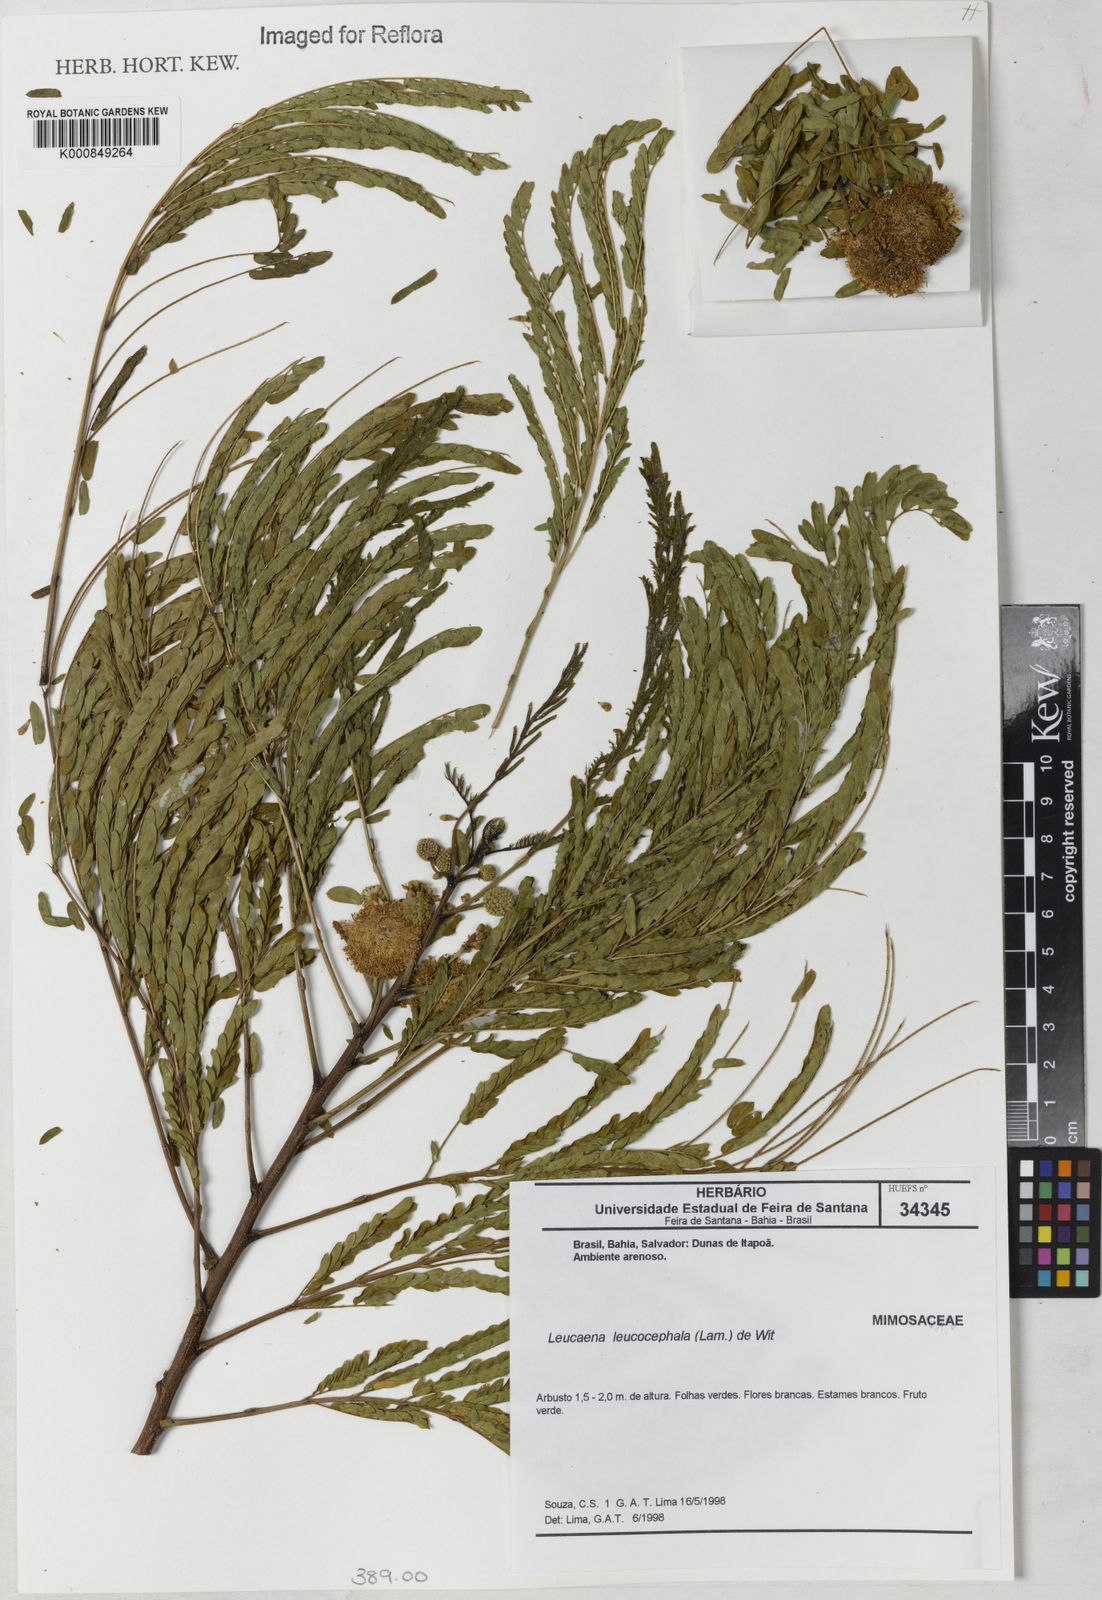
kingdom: Plantae
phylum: Tracheophyta
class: Magnoliopsida
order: Fabales
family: Fabaceae
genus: Leucaena
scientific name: Leucaena leucocephala
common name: White leadtree
